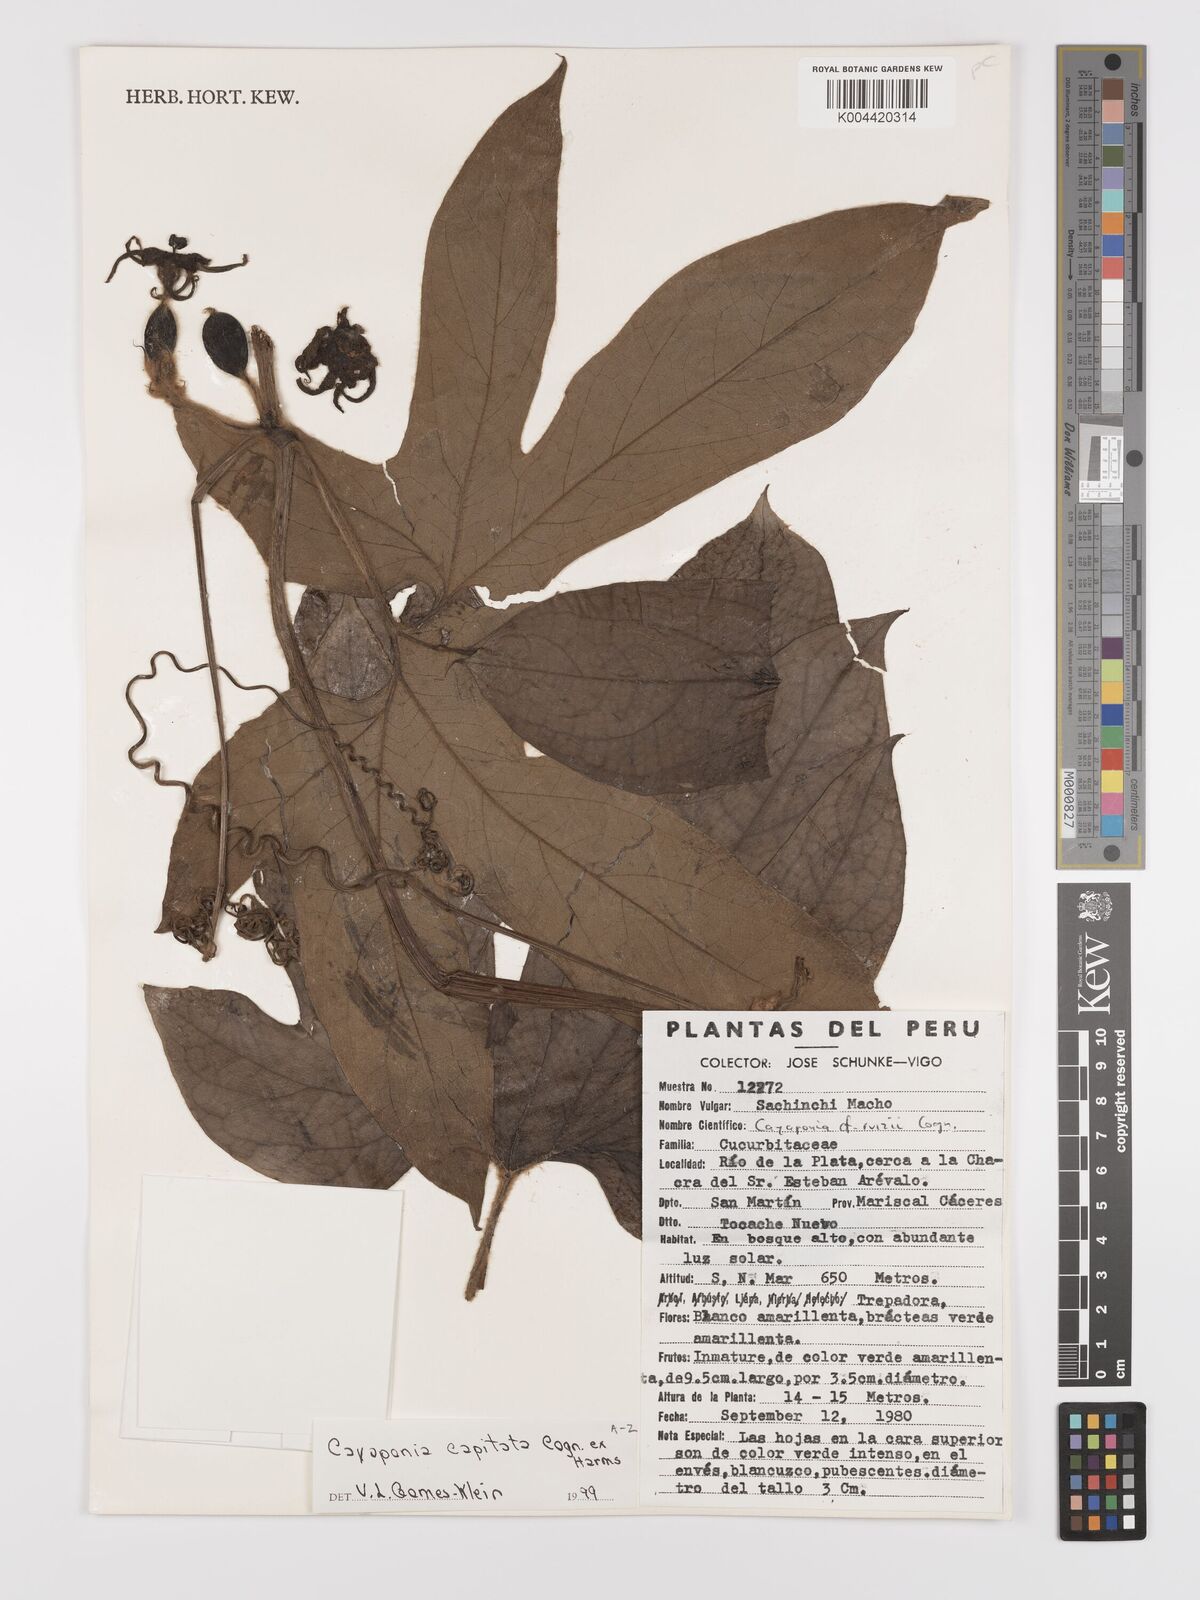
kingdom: Plantae
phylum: Tracheophyta
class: Magnoliopsida
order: Cucurbitales
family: Cucurbitaceae
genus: Cayaponia
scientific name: Cayaponia capitata
